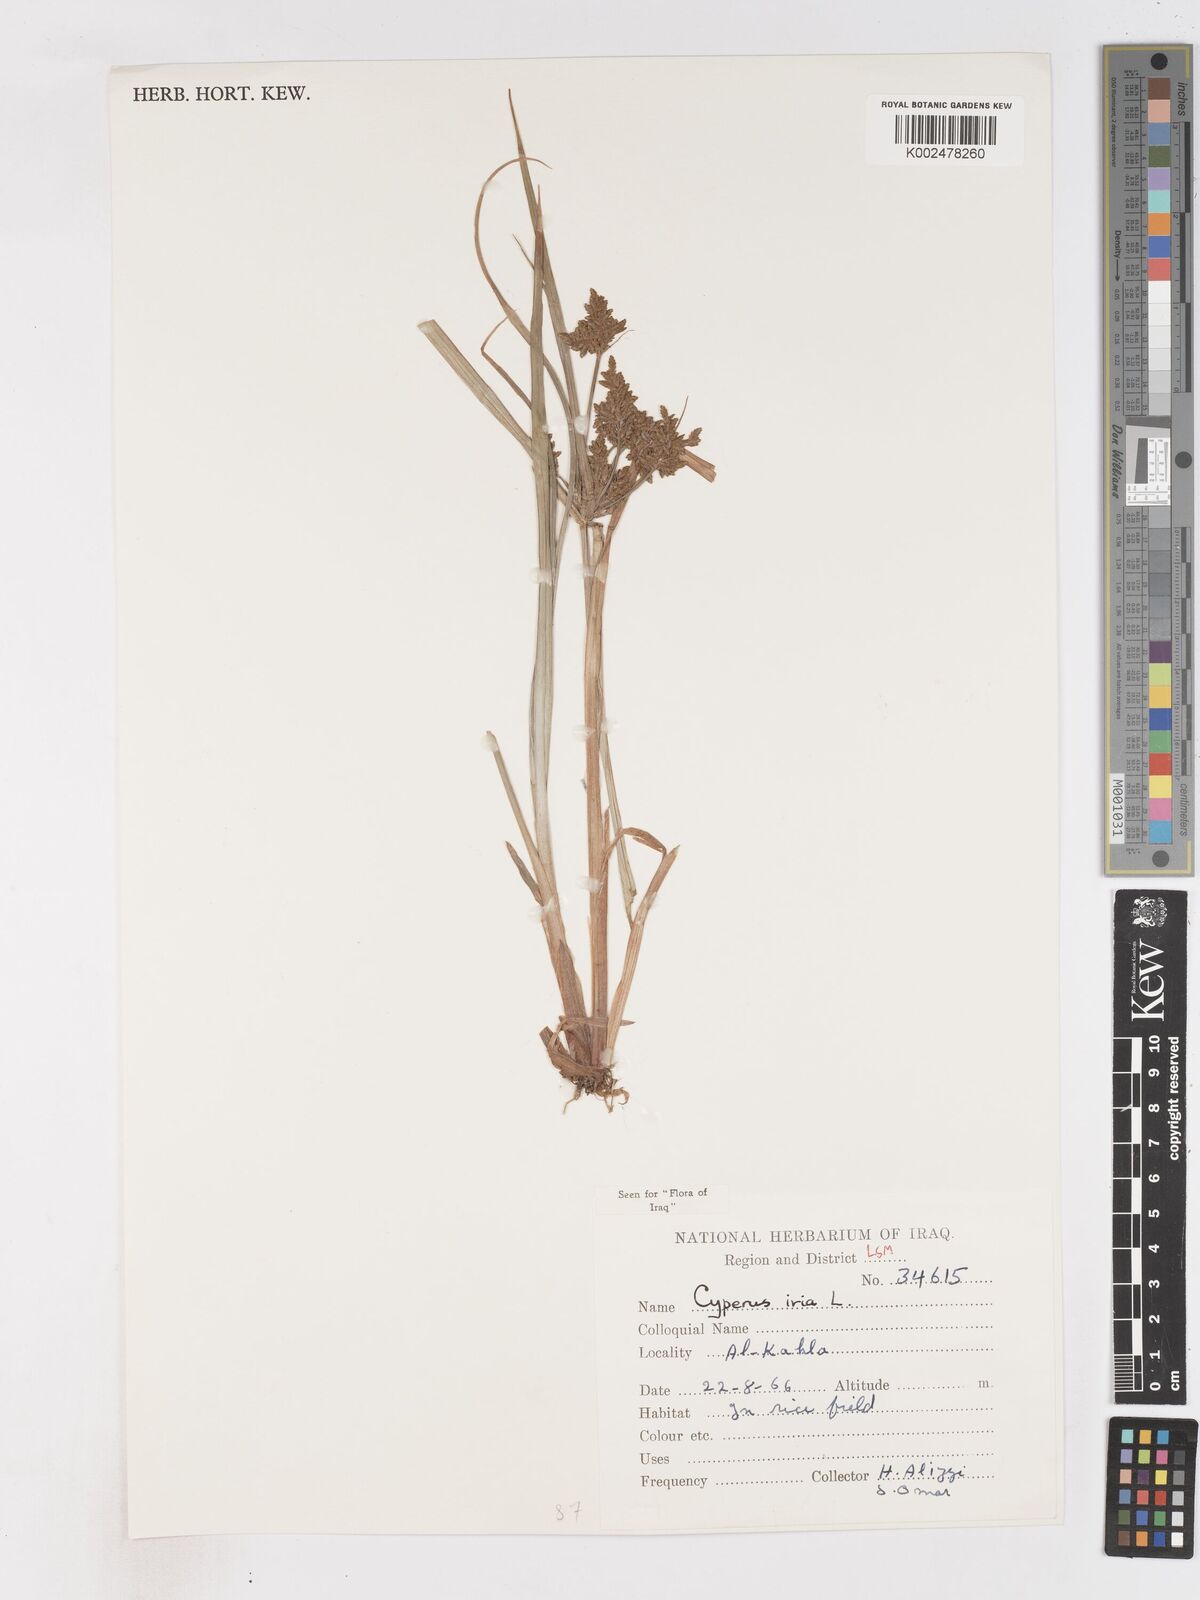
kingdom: Plantae
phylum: Tracheophyta
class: Liliopsida
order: Poales
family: Cyperaceae
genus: Cyperus
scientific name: Cyperus iria
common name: Ricefield flatsedge
